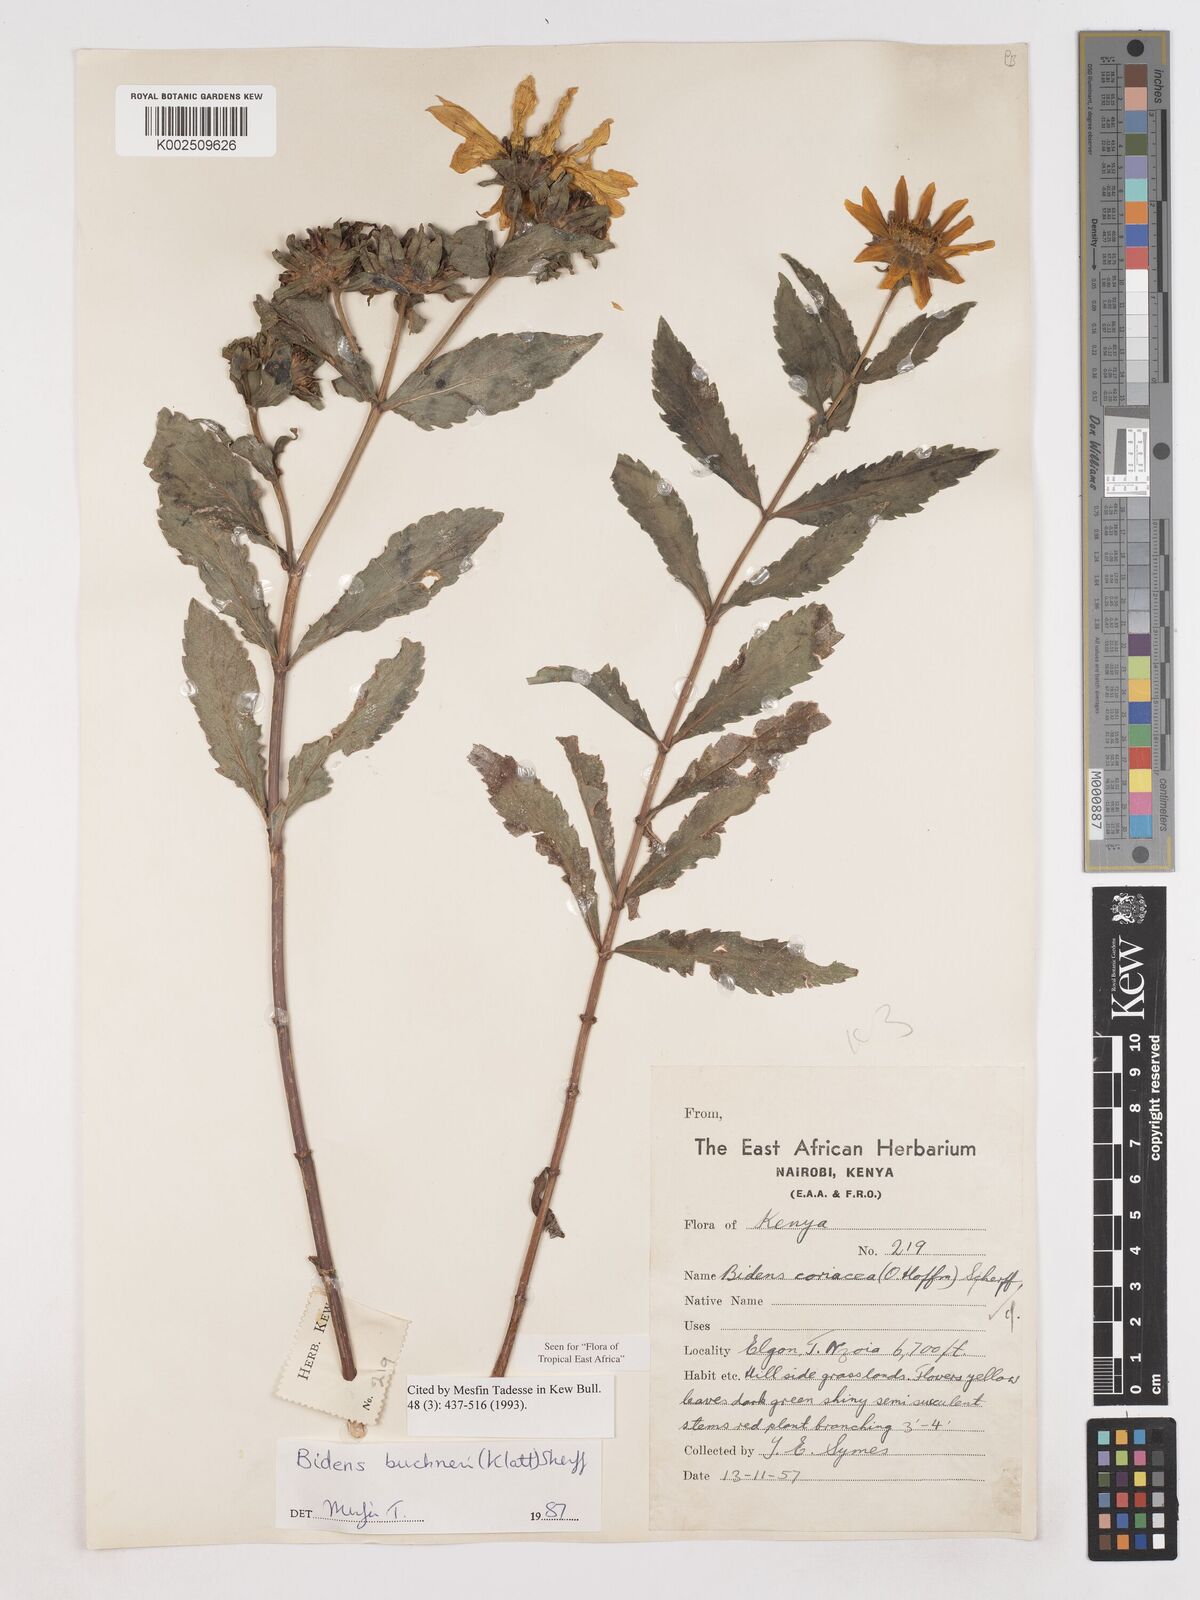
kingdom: Plantae
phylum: Tracheophyta
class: Magnoliopsida
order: Asterales
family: Asteraceae
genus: Bidens
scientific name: Bidens buchneri
